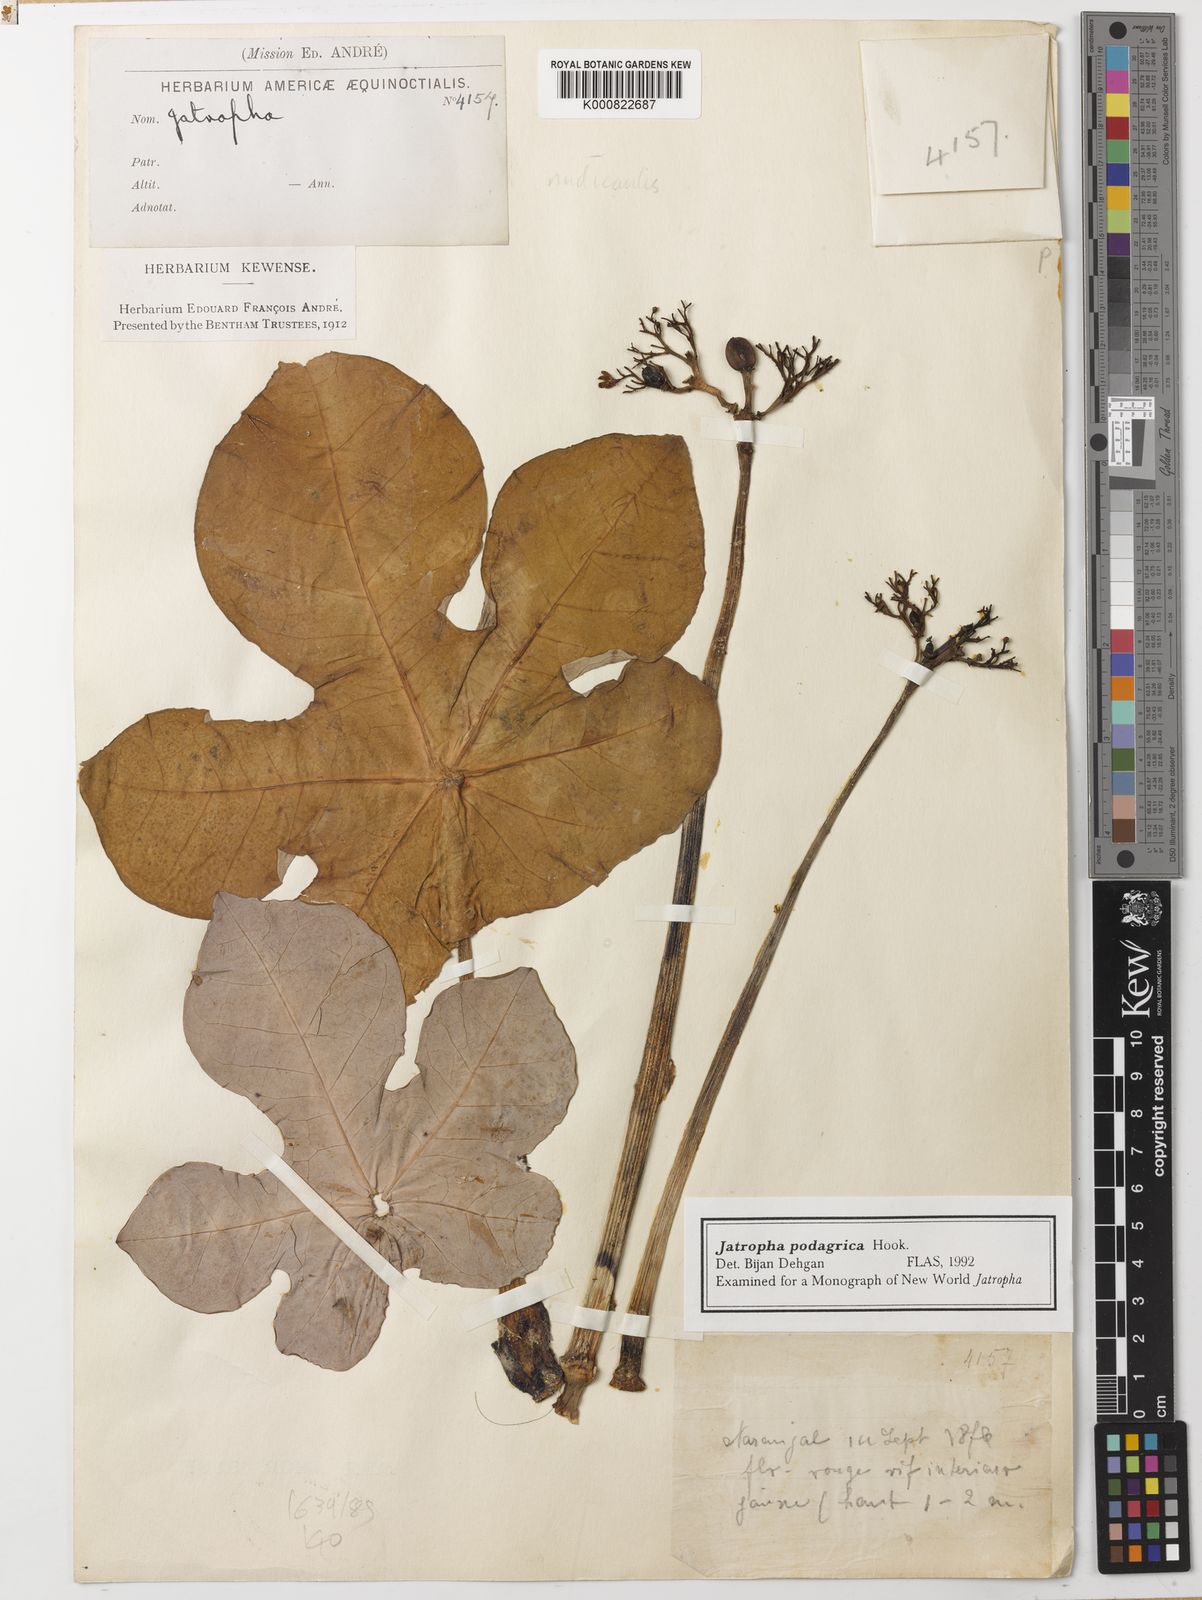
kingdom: Plantae
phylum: Tracheophyta
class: Magnoliopsida
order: Malpighiales
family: Euphorbiaceae
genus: Jatropha
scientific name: Jatropha podagrica
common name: Gout stalk
